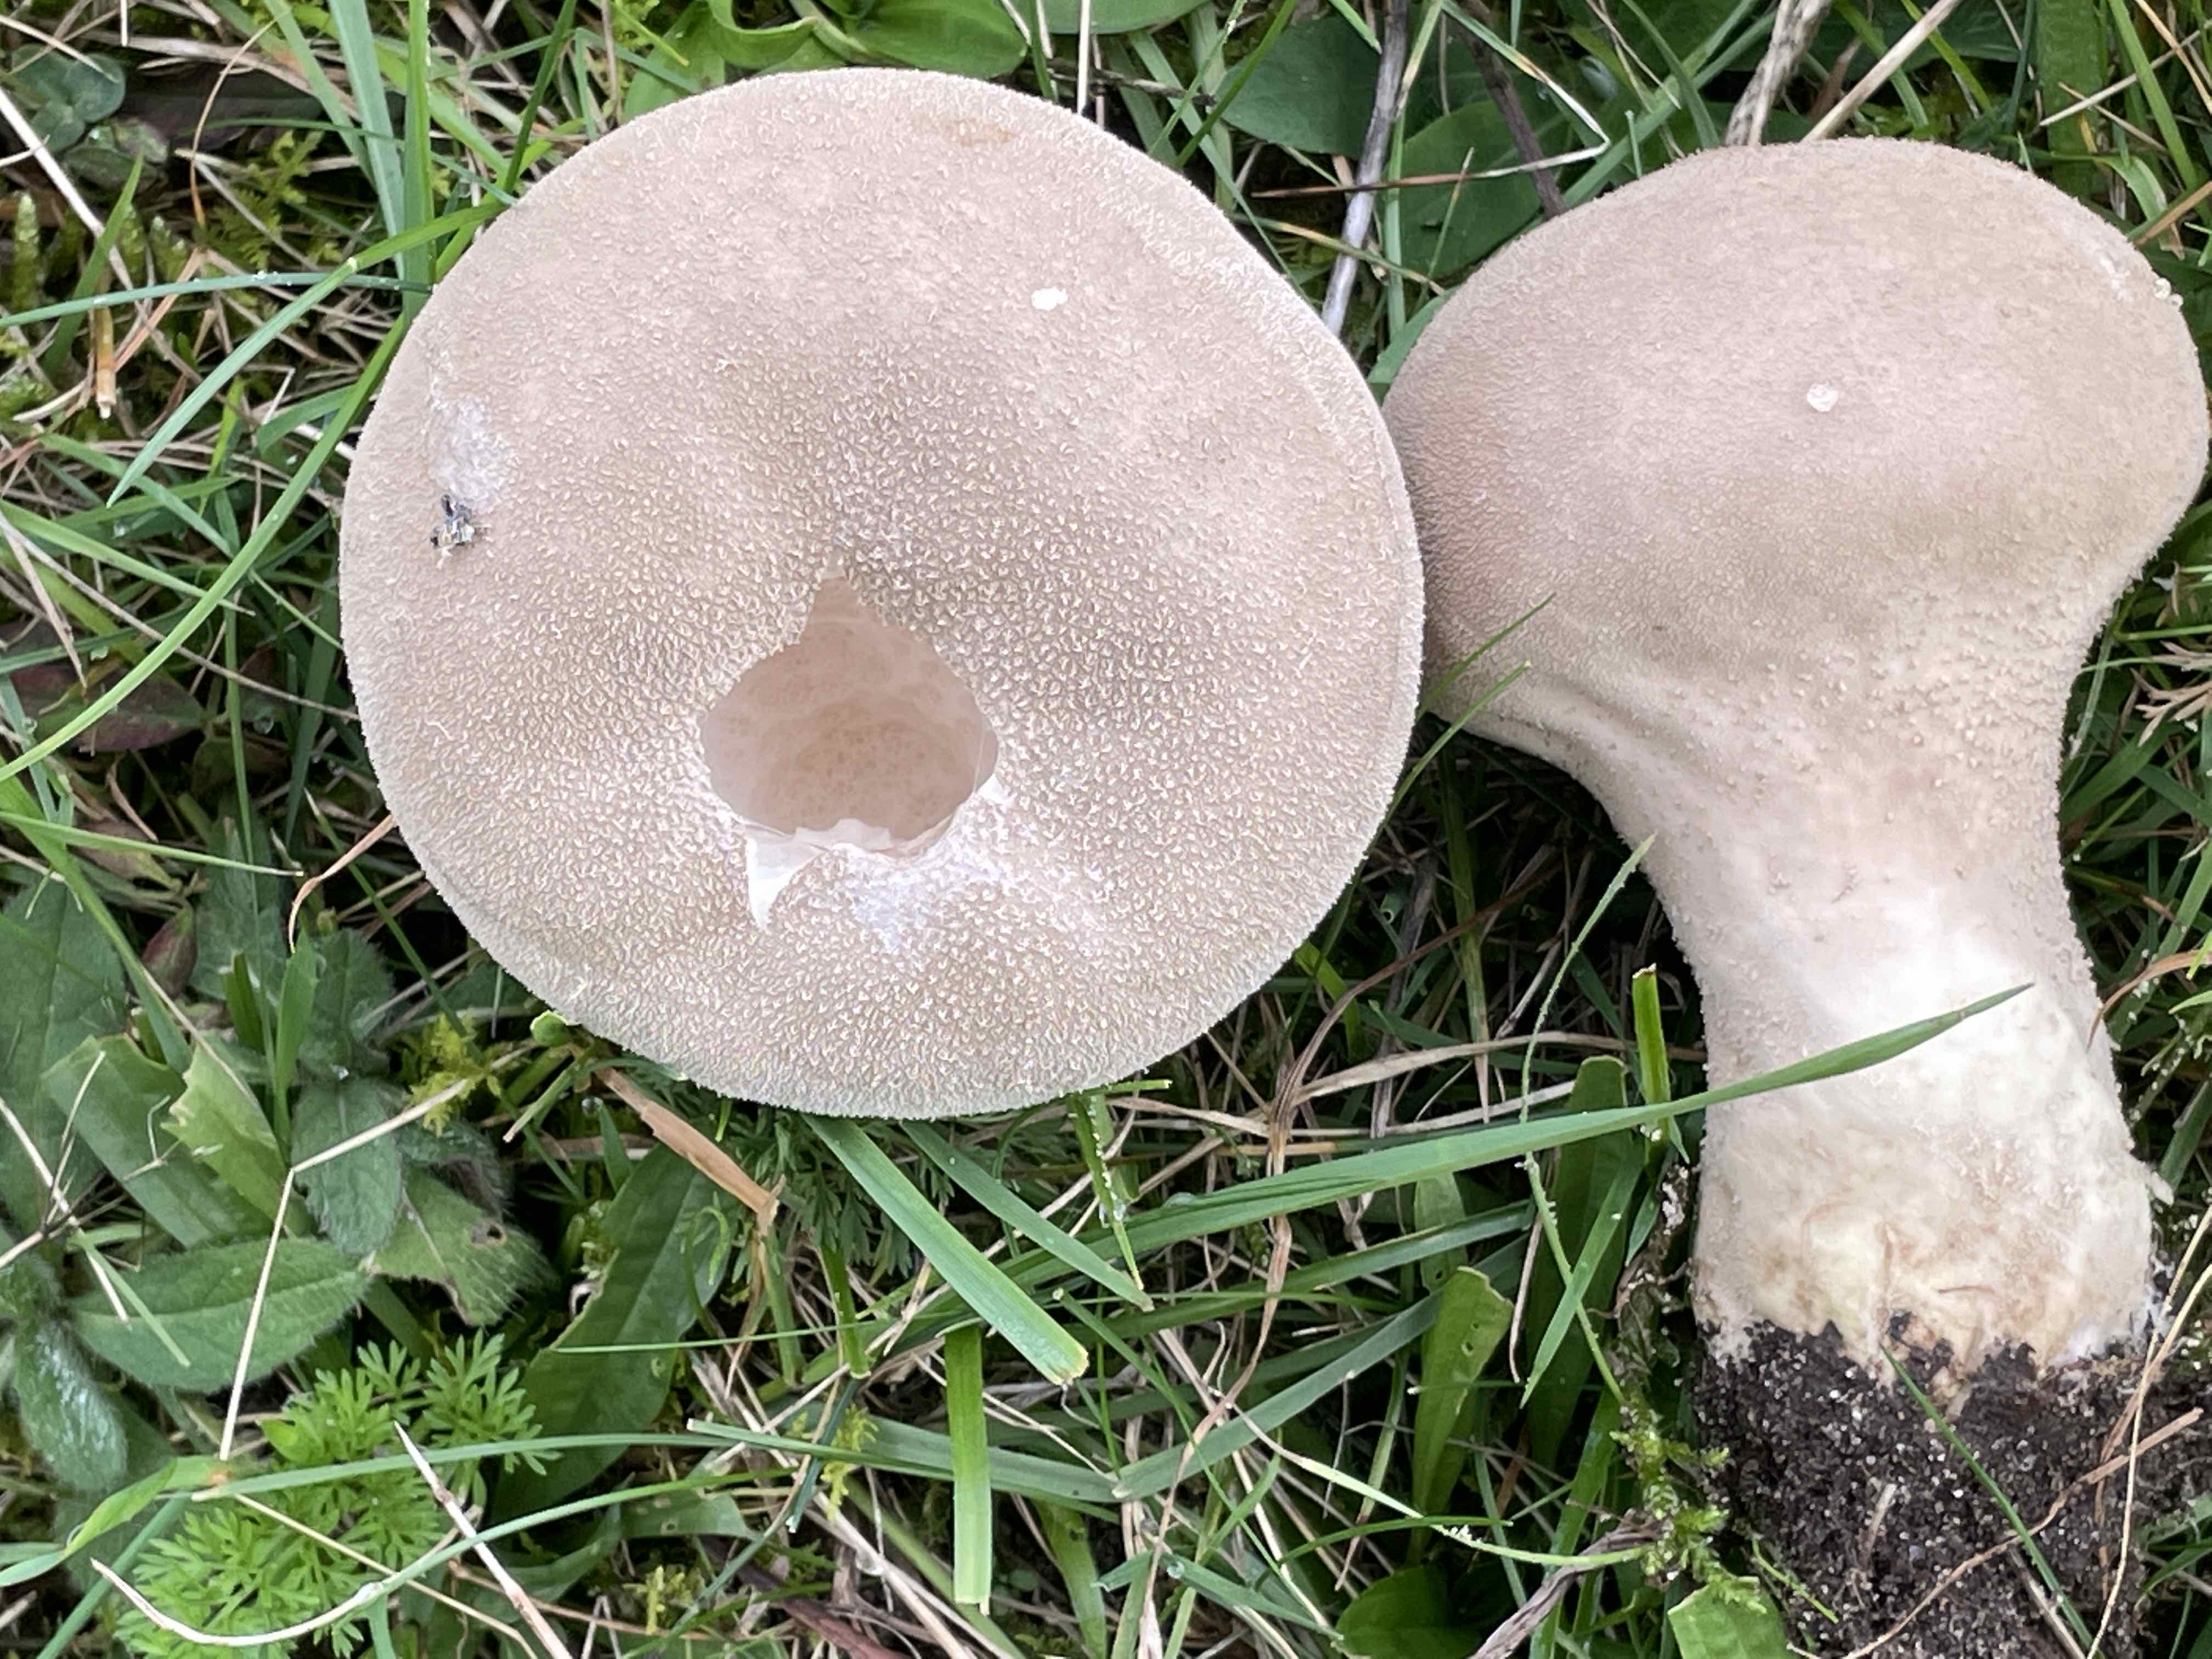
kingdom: Fungi
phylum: Basidiomycota
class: Agaricomycetes
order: Agaricales
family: Lycoperdaceae
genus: Lycoperdon
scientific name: Lycoperdon excipuliforme
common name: højstokket støvbold
